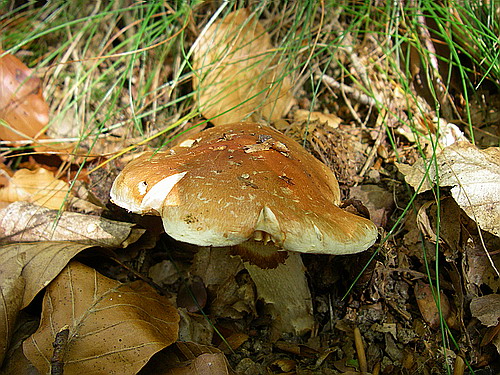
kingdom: Fungi
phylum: Basidiomycota
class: Agaricomycetes
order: Agaricales
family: Cortinariaceae
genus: Phlegmacium
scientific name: Phlegmacium vulpinum
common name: ringbæltet slørhat
